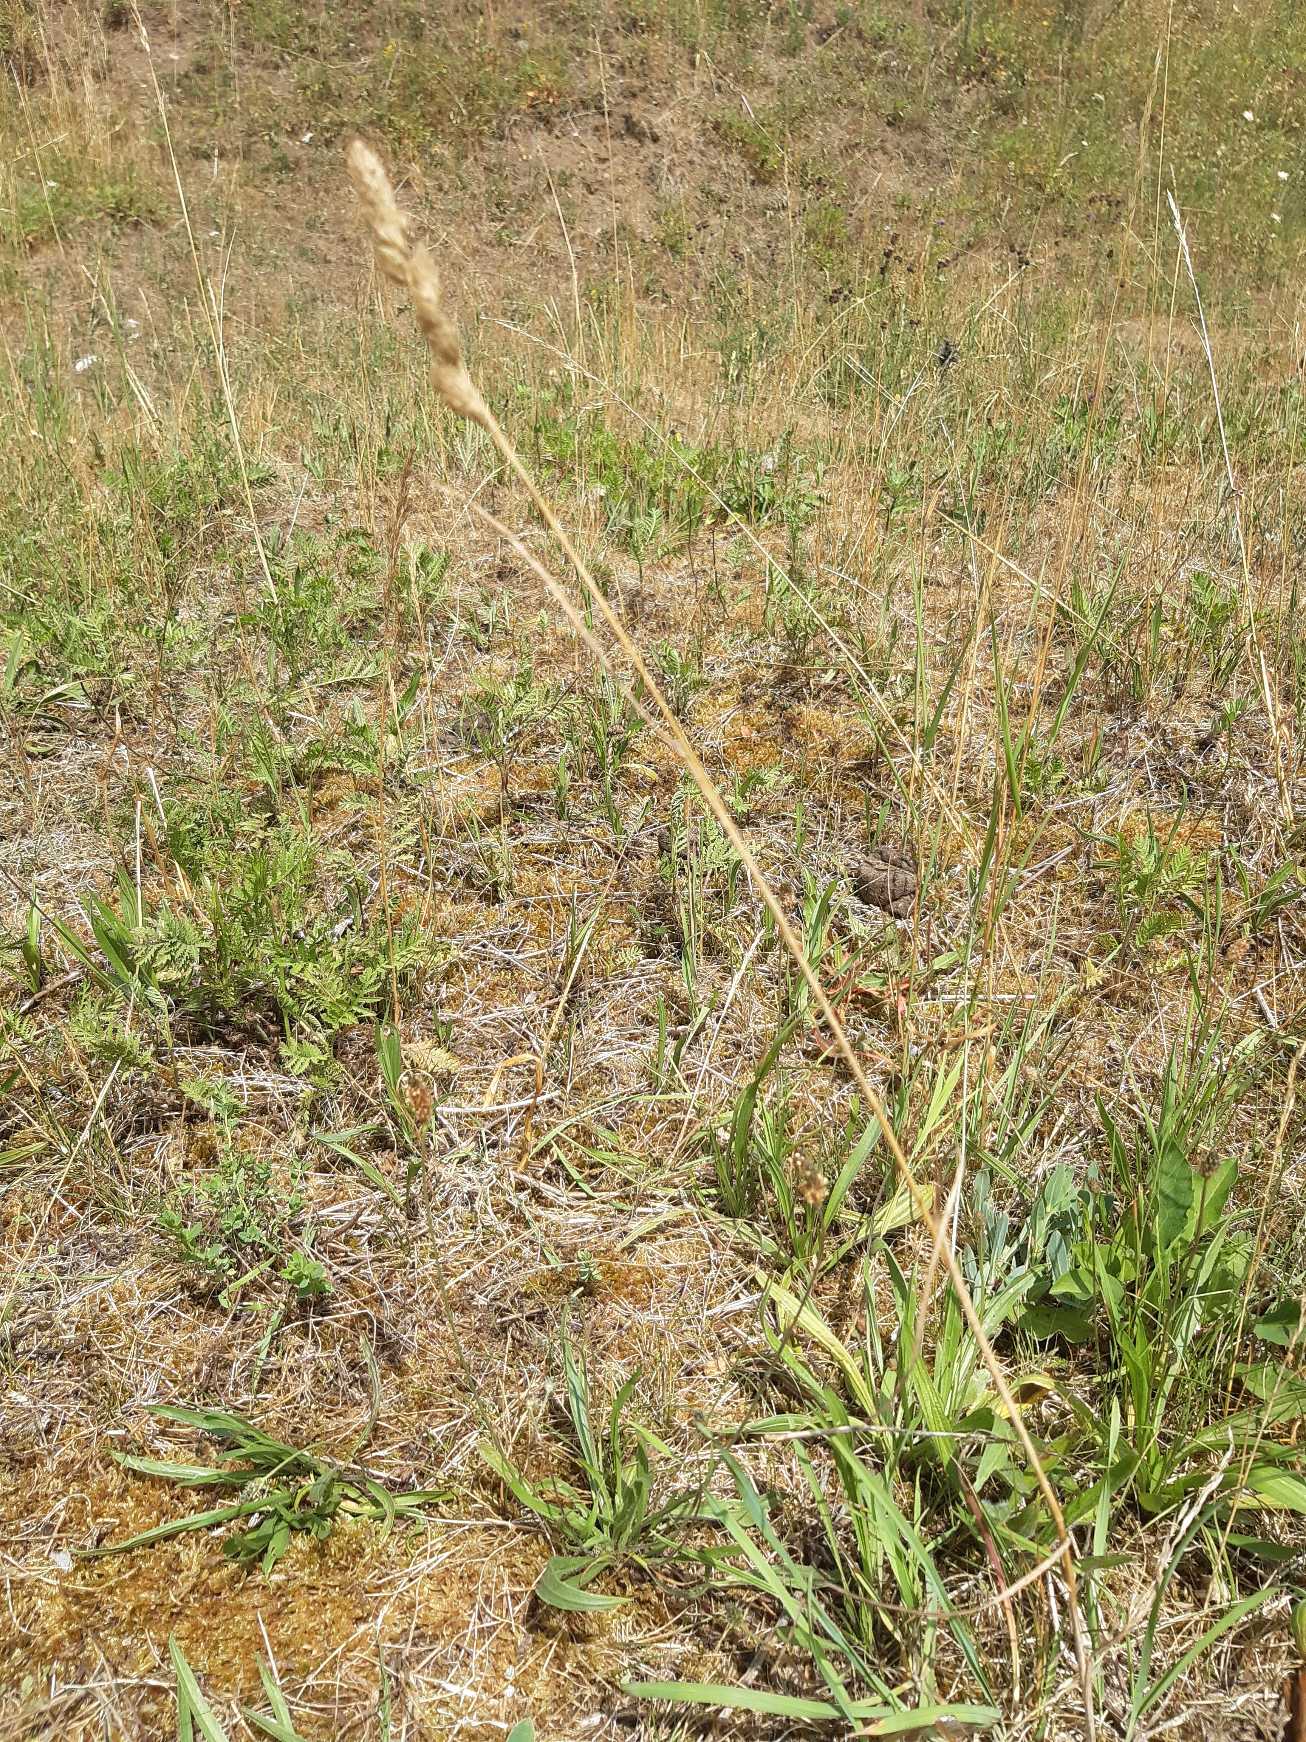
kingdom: Plantae
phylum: Tracheophyta
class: Liliopsida
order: Poales
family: Poaceae
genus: Dactylis
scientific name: Dactylis glomerata
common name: Almindelig hundegræs
